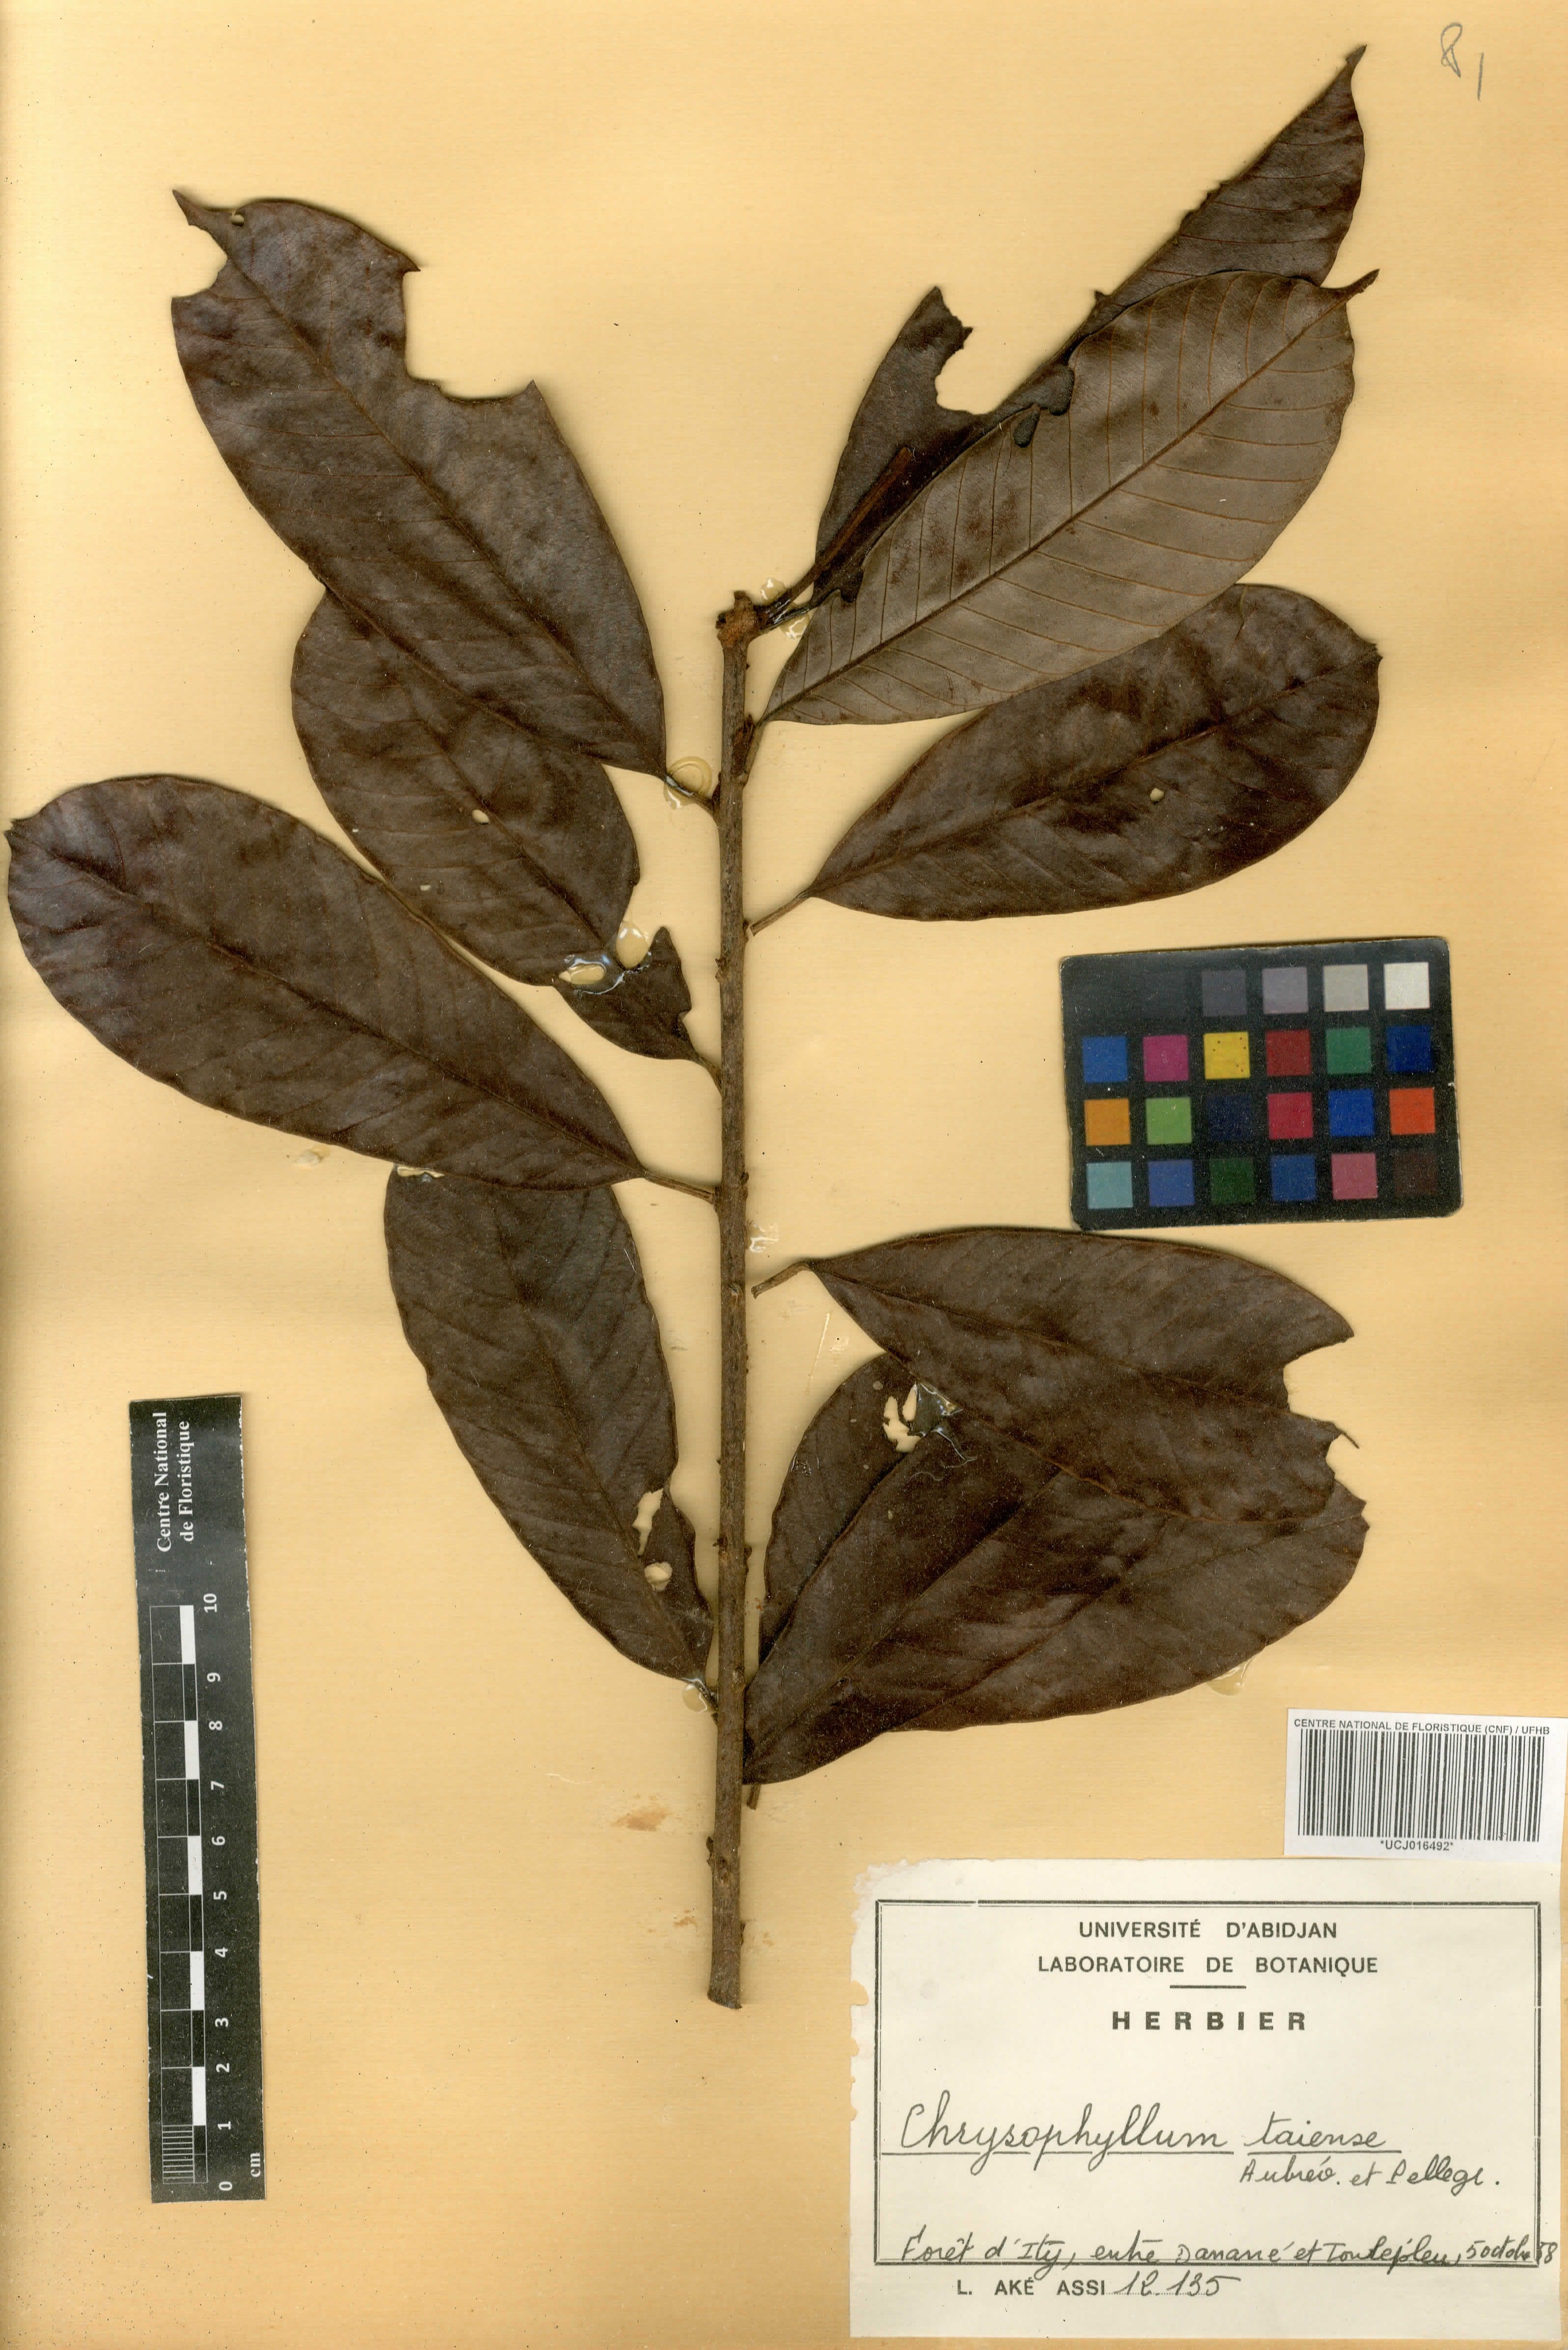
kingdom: Plantae
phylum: Tracheophyta
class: Magnoliopsida
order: Ericales
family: Sapotaceae
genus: Gambeya
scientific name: Gambeya taiensis
